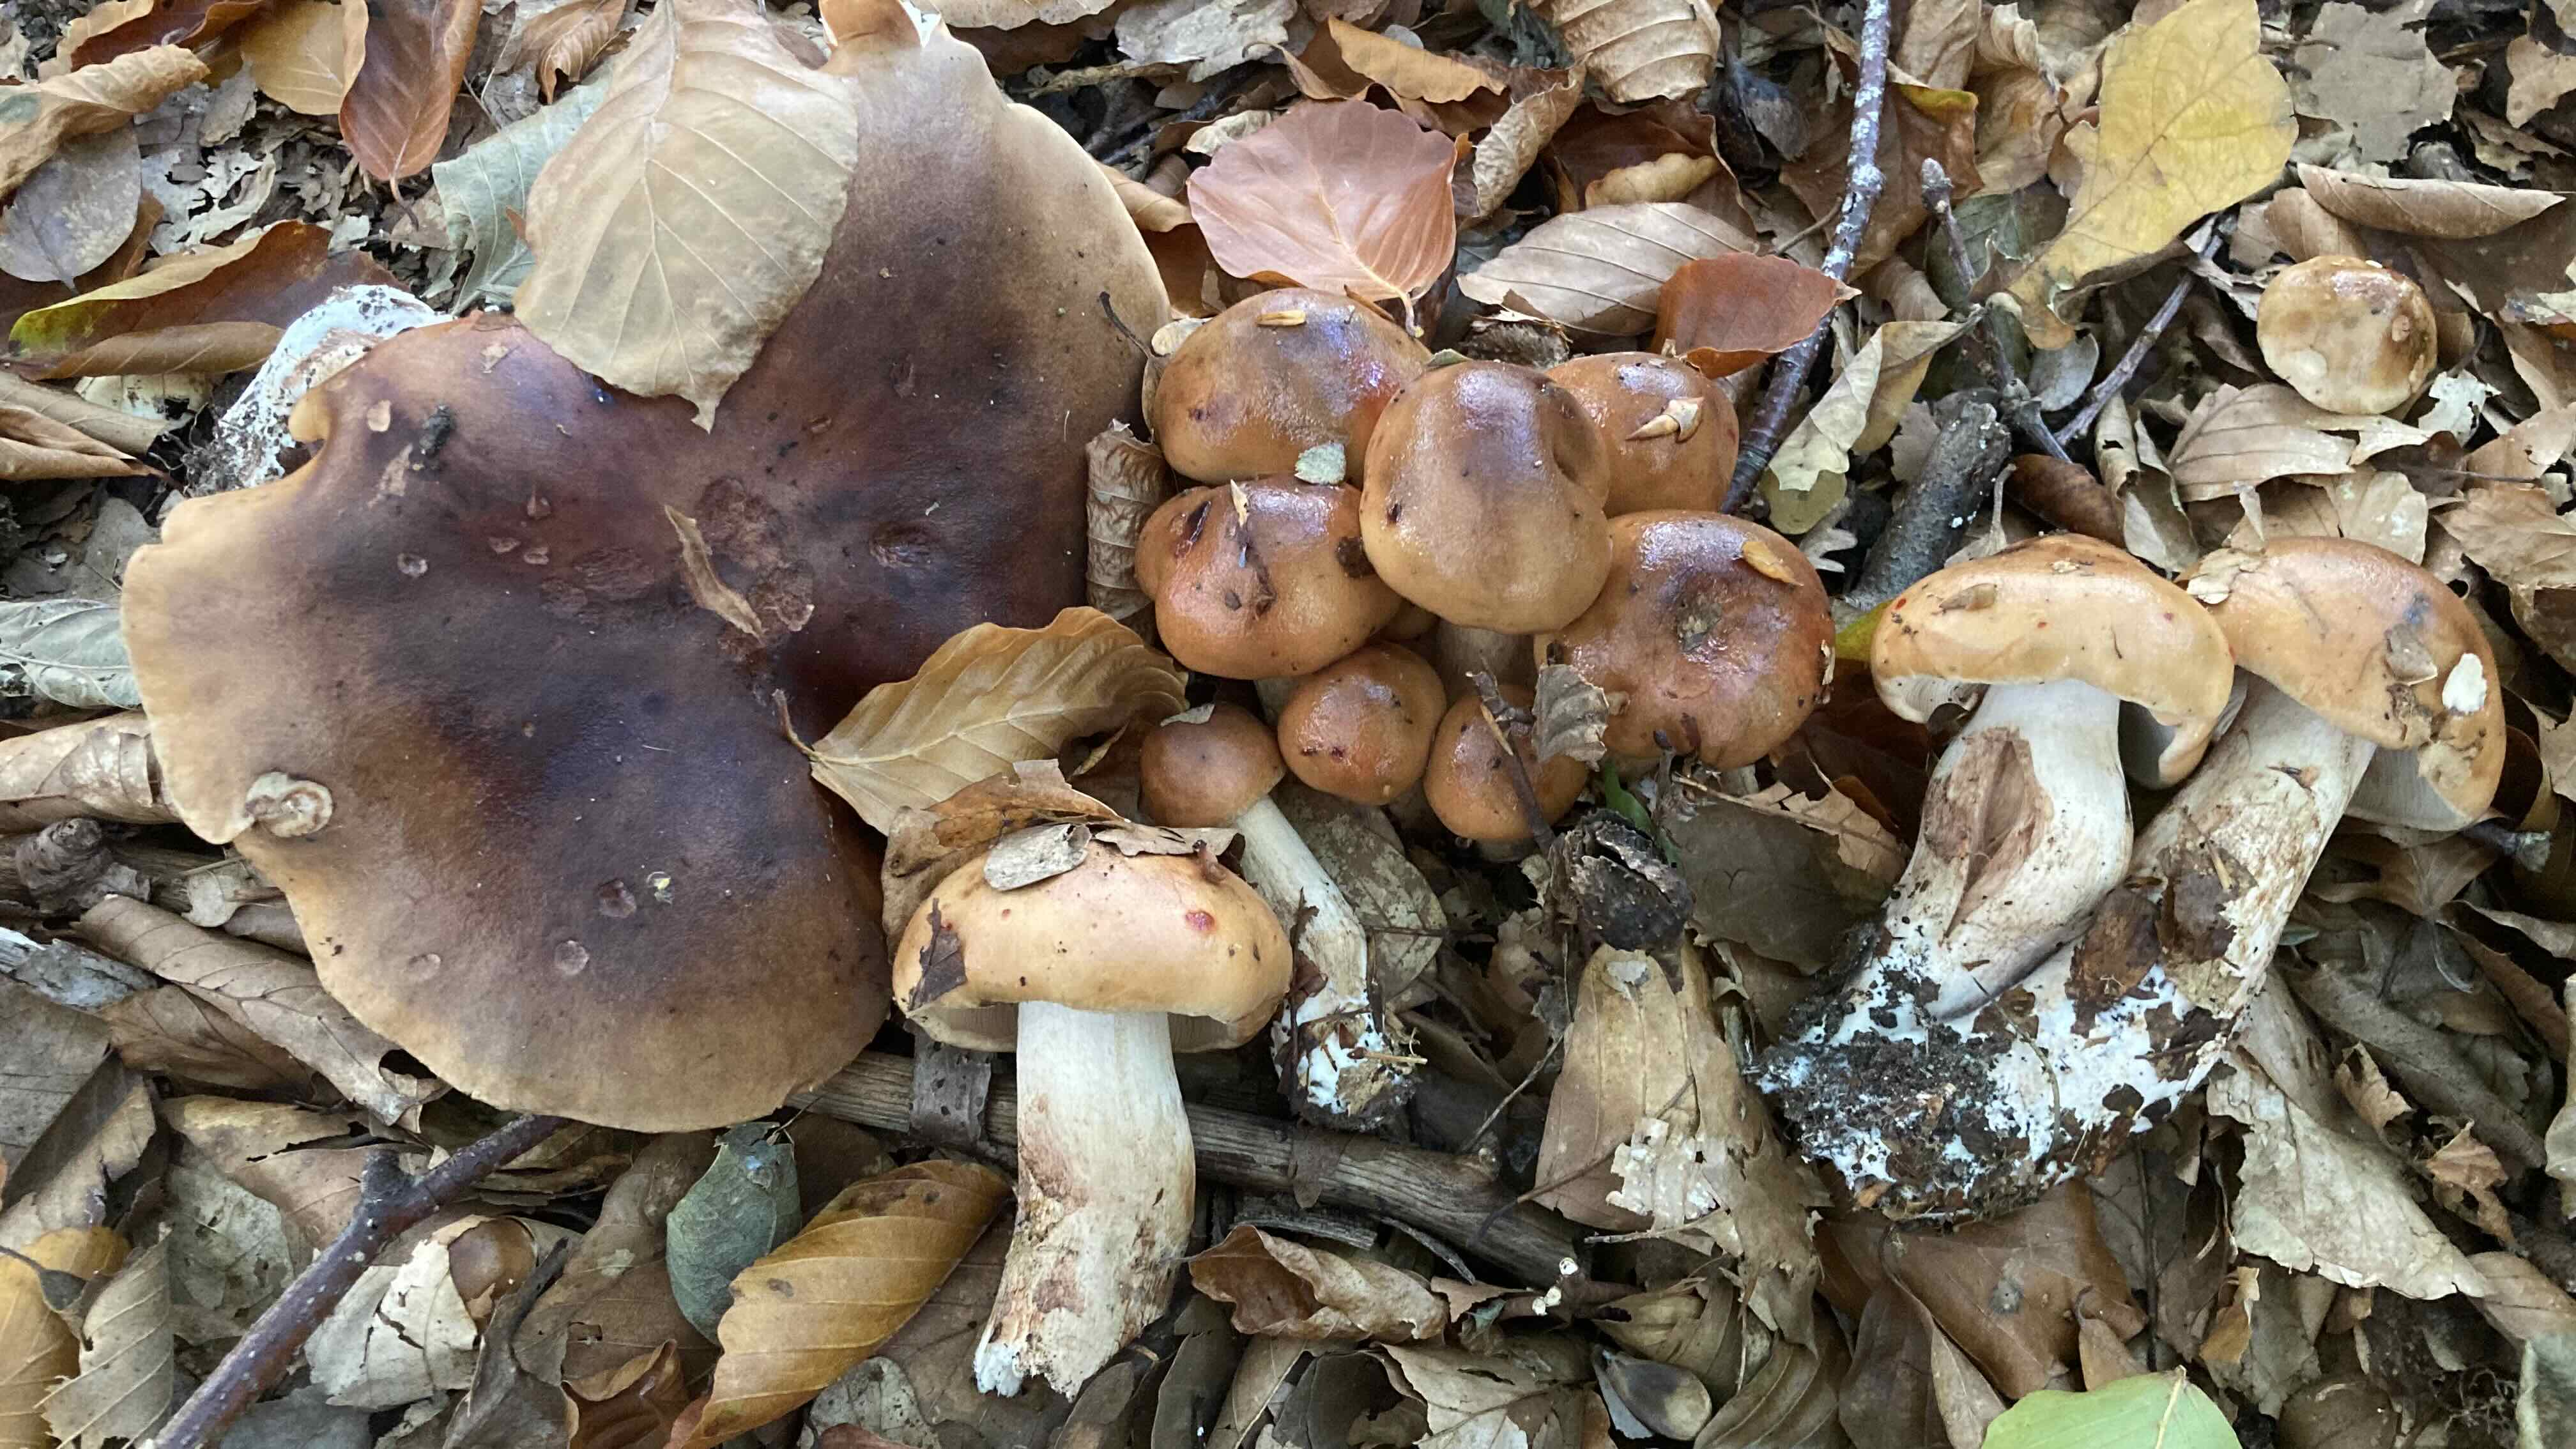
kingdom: Fungi
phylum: Basidiomycota
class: Agaricomycetes
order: Agaricales
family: Tricholomataceae
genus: Tricholoma
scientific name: Tricholoma ustale
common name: sveden ridderhat
